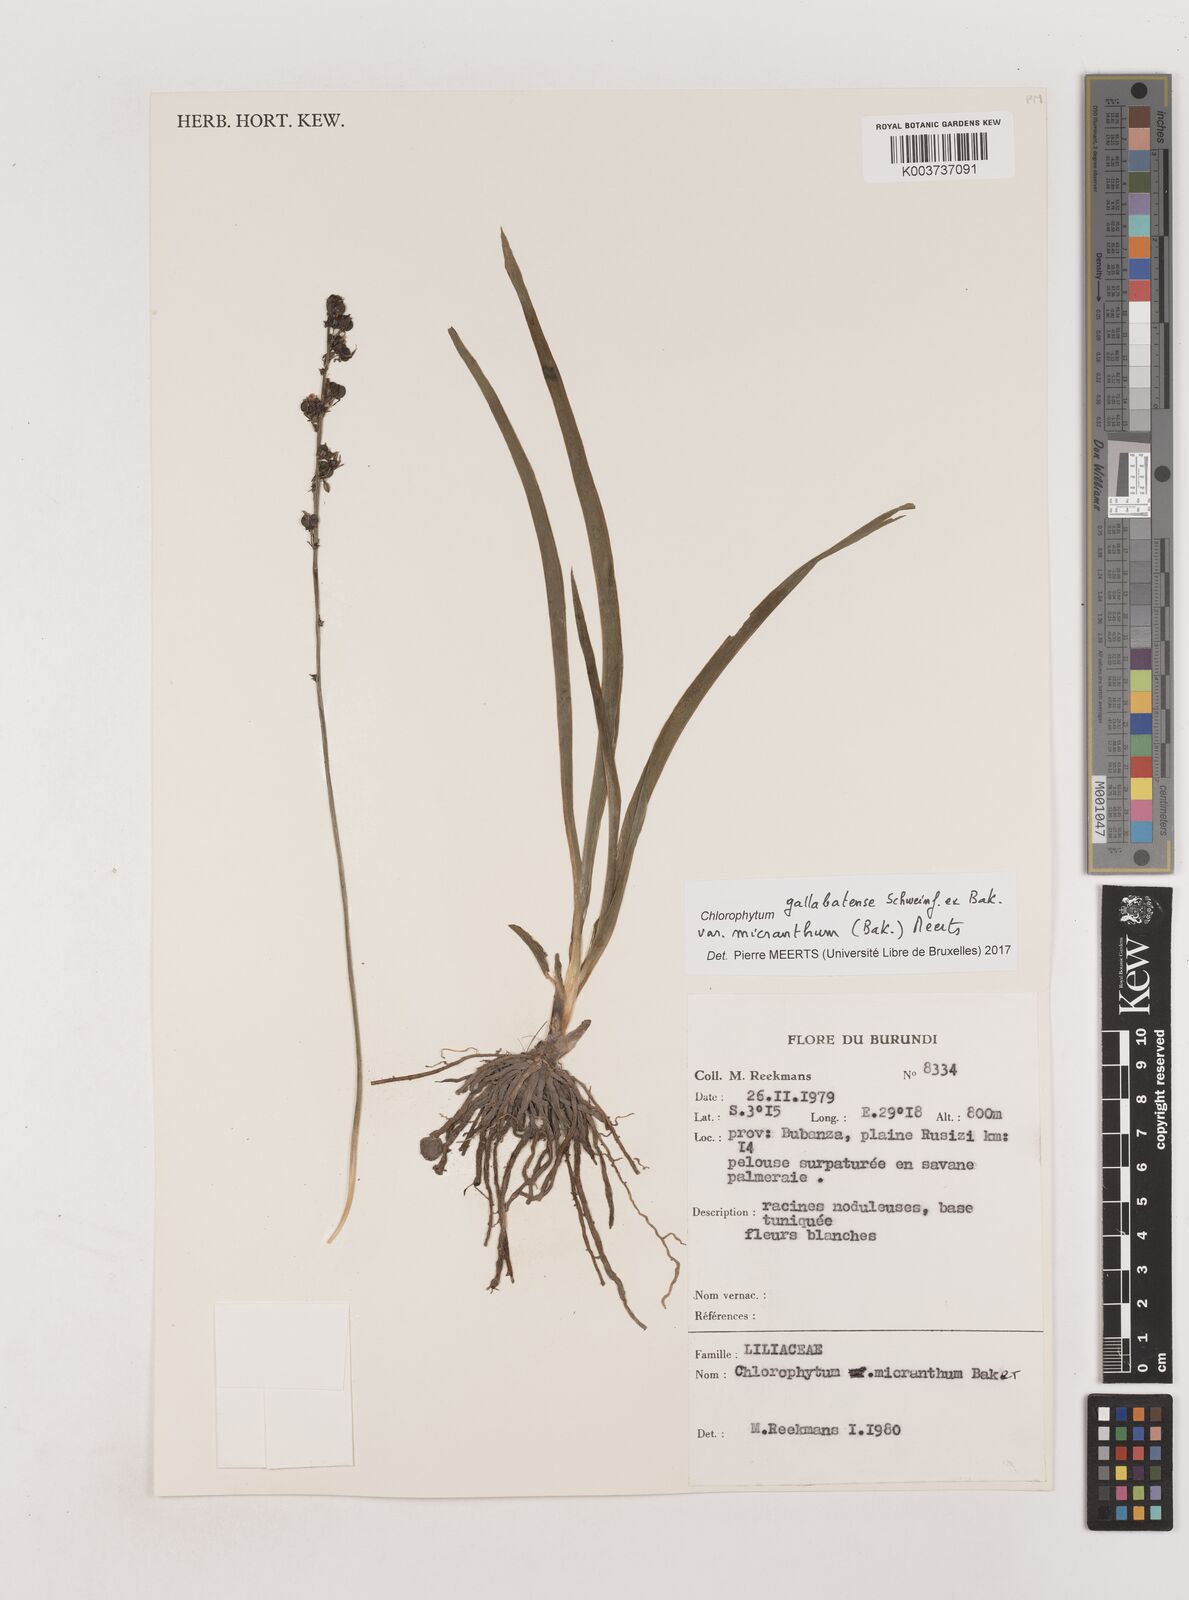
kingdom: Plantae
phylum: Tracheophyta
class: Liliopsida
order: Asparagales
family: Asparagaceae
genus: Chlorophytum
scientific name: Chlorophytum gallabatense
